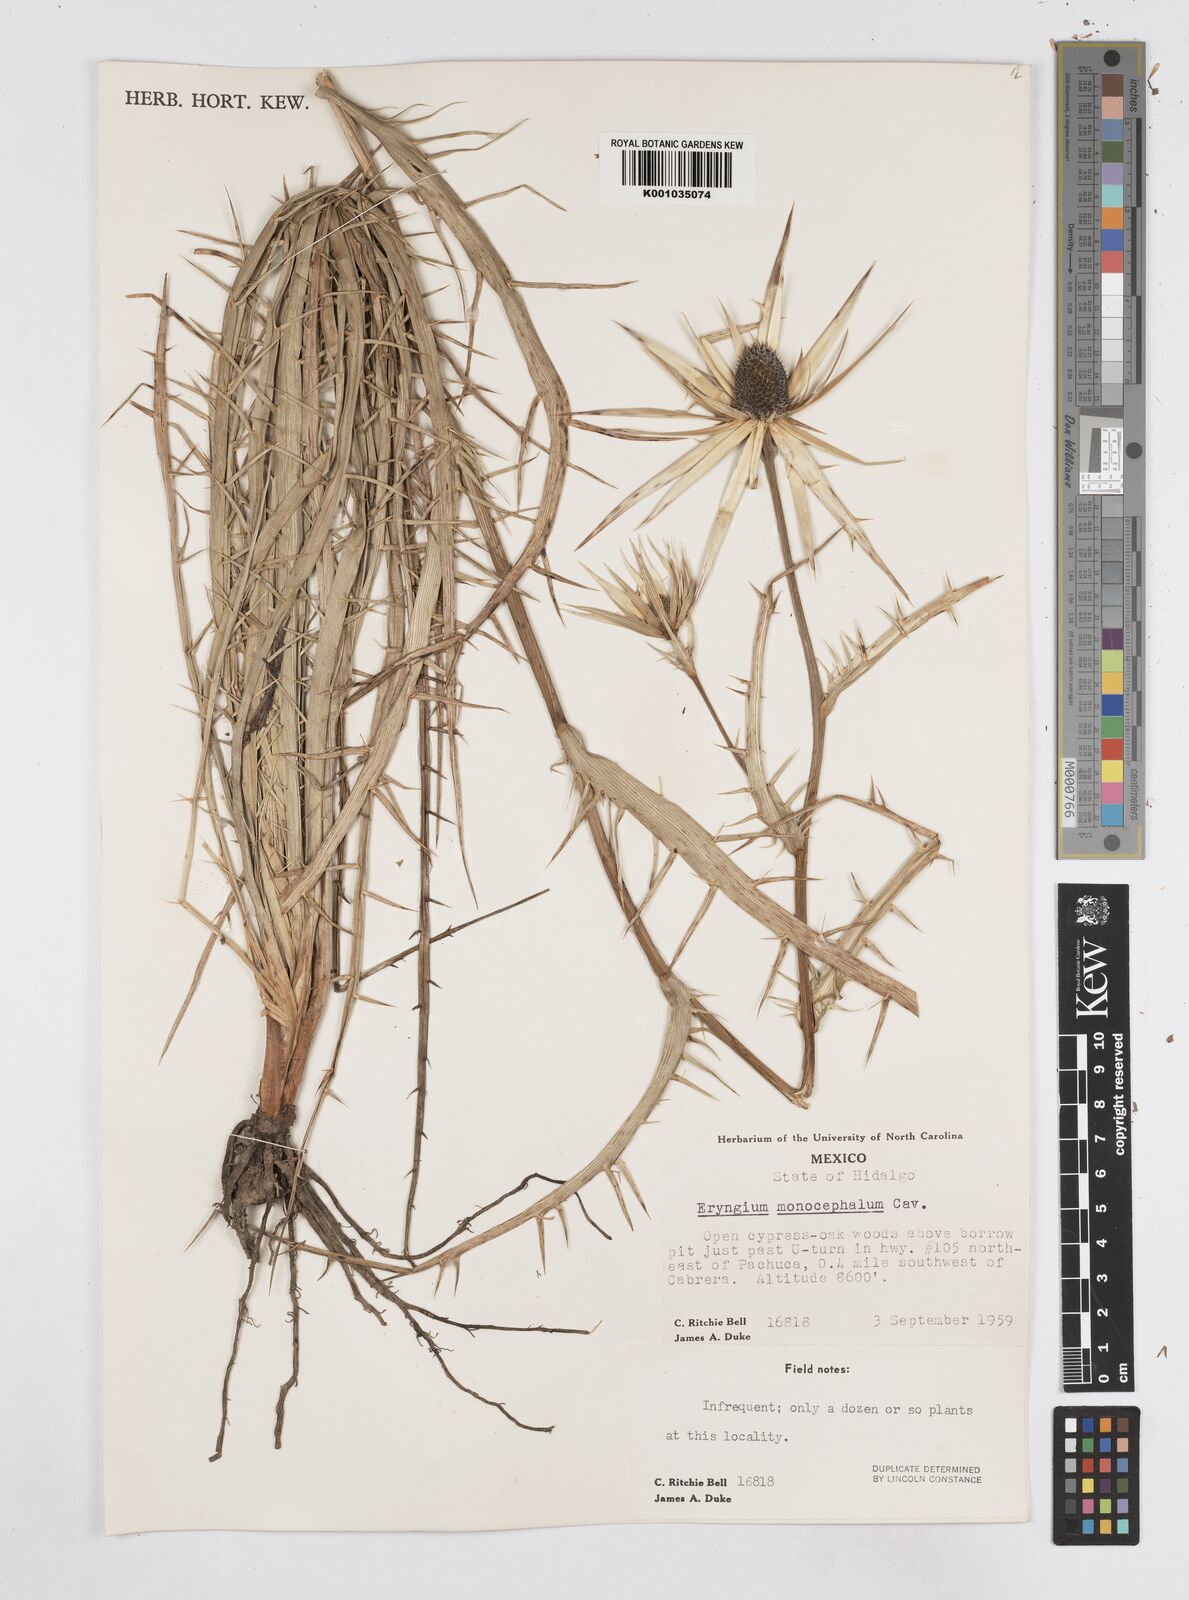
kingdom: Plantae
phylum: Tracheophyta
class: Magnoliopsida
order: Apiales
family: Apiaceae
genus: Eryngium
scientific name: Eryngium monocephalum
